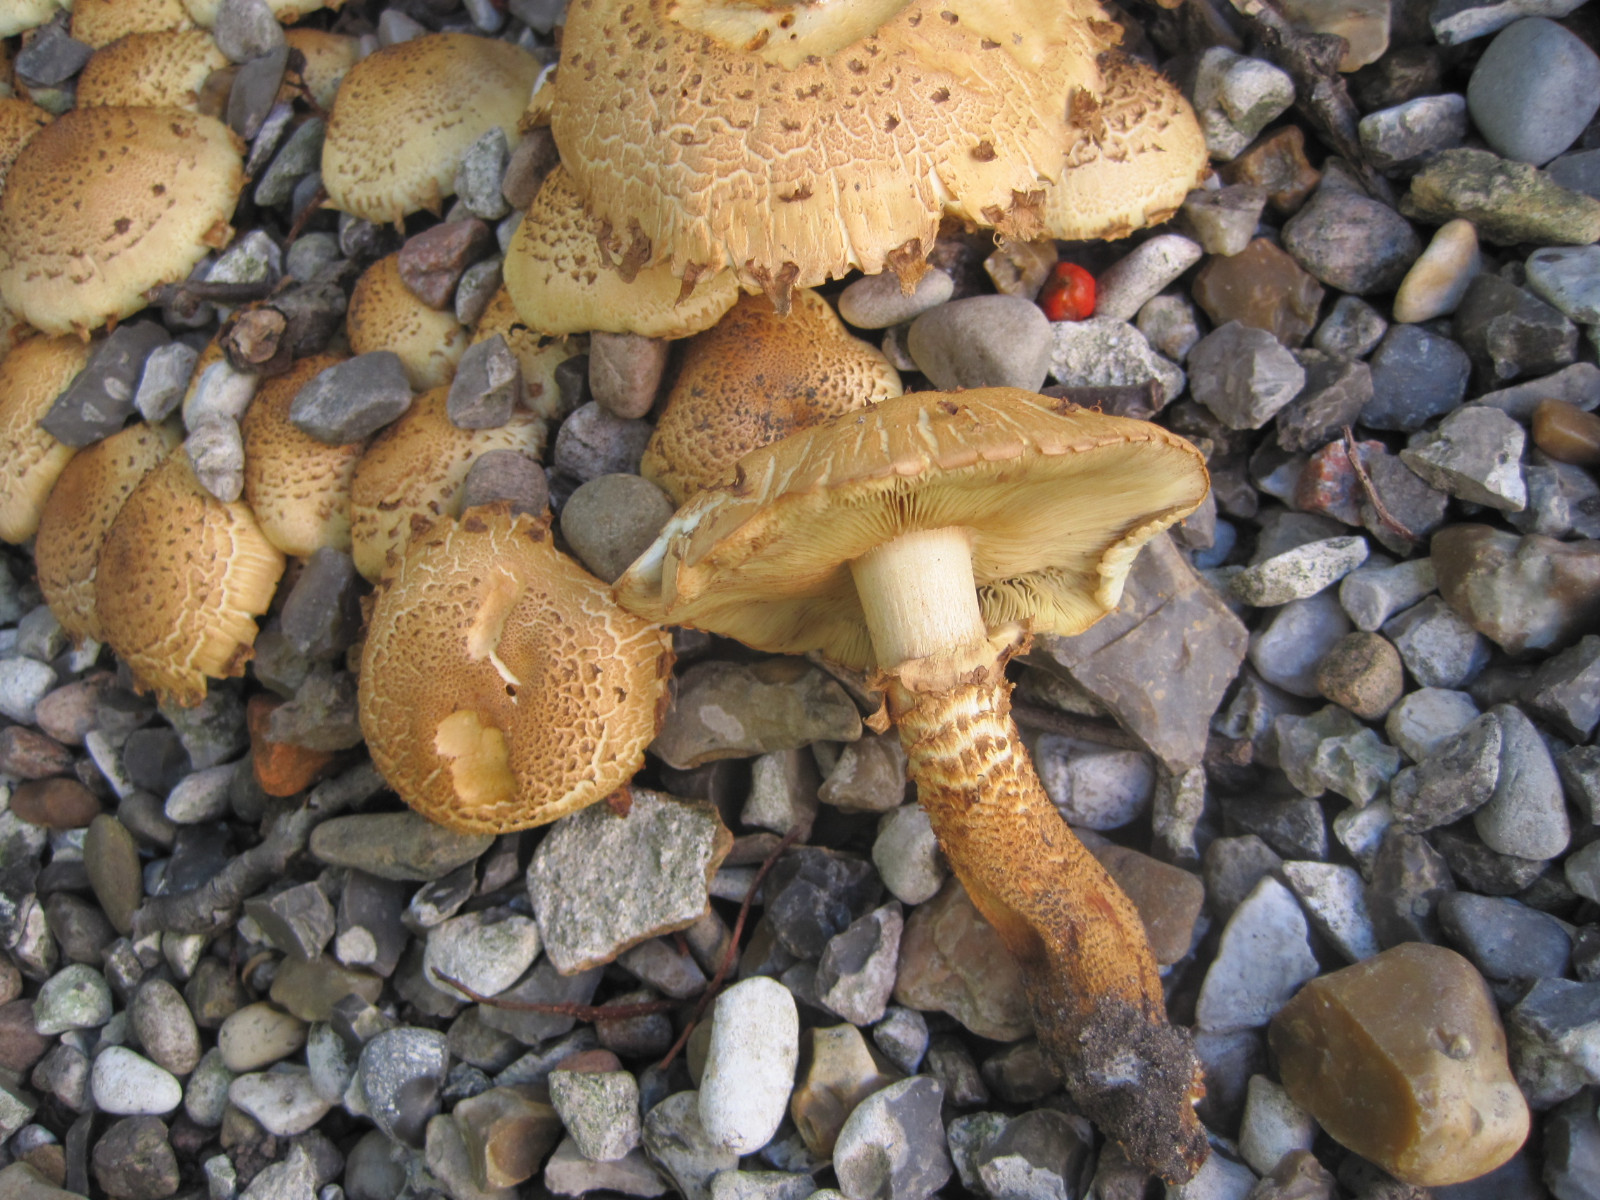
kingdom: Fungi
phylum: Basidiomycota
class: Agaricomycetes
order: Agaricales
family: Strophariaceae
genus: Pholiota
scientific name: Pholiota squarrosa
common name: krumskællet skælhat
